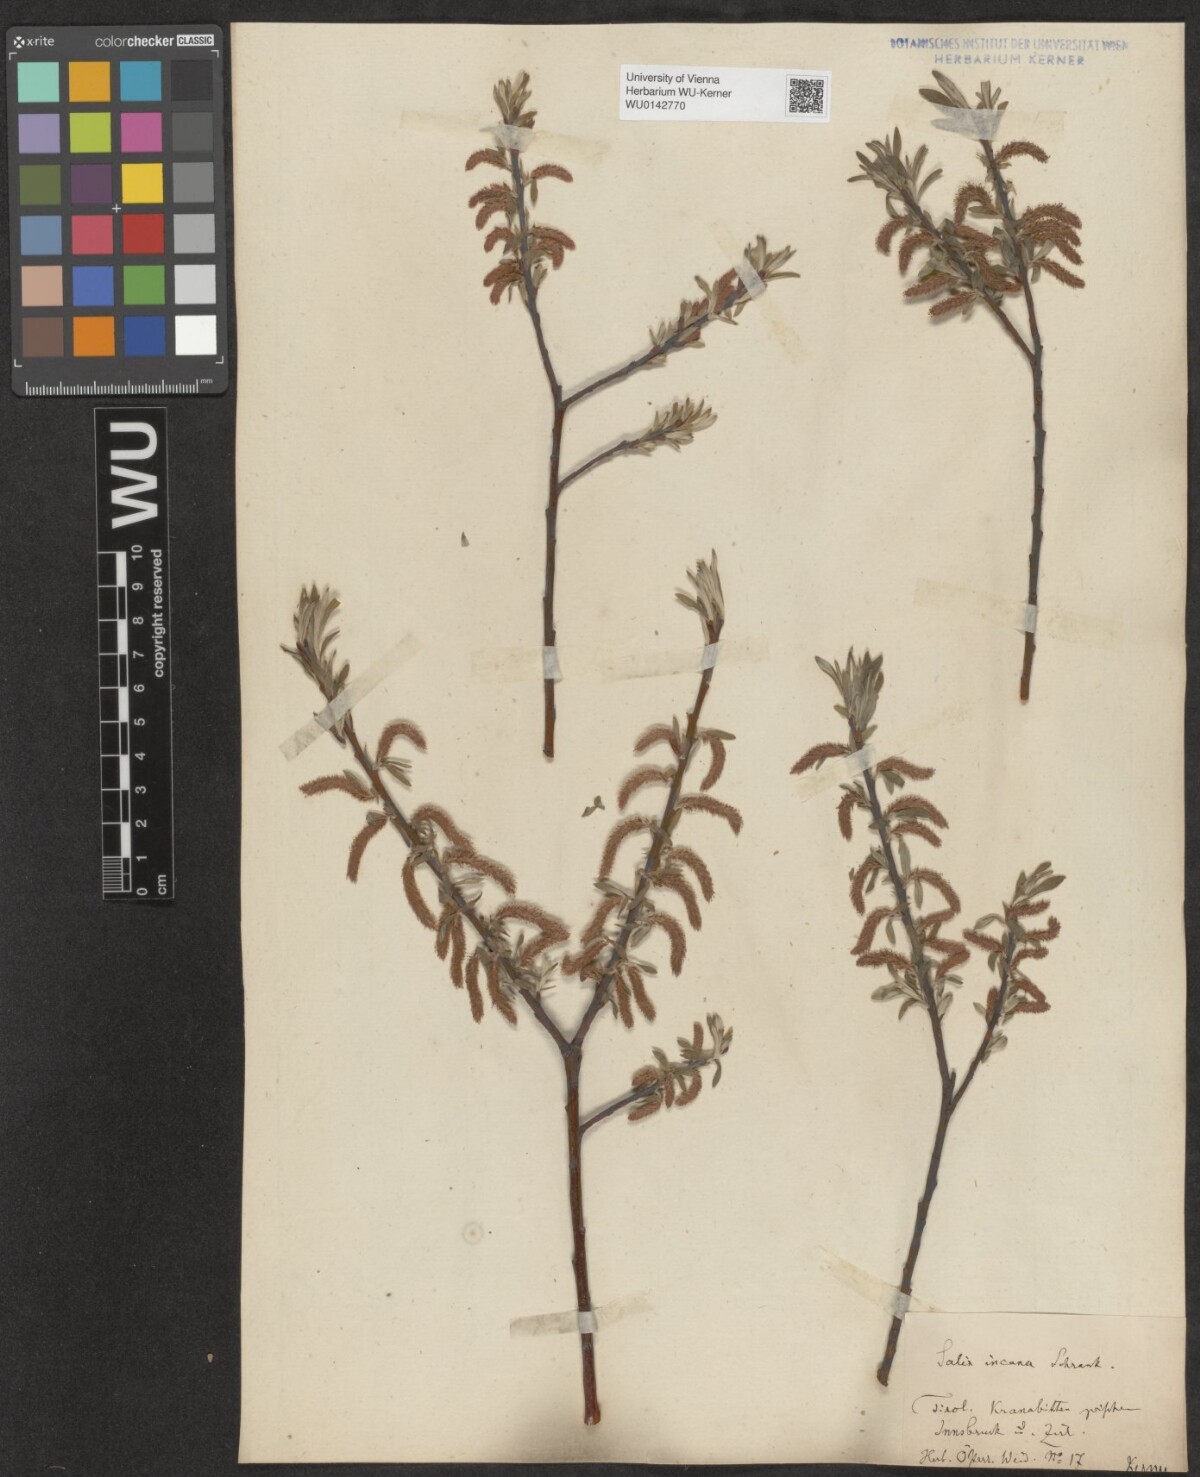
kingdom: Plantae
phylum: Tracheophyta
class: Magnoliopsida
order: Malpighiales
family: Salicaceae
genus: Salix
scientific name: Salix eleagnos
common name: Elaeagnus willow
